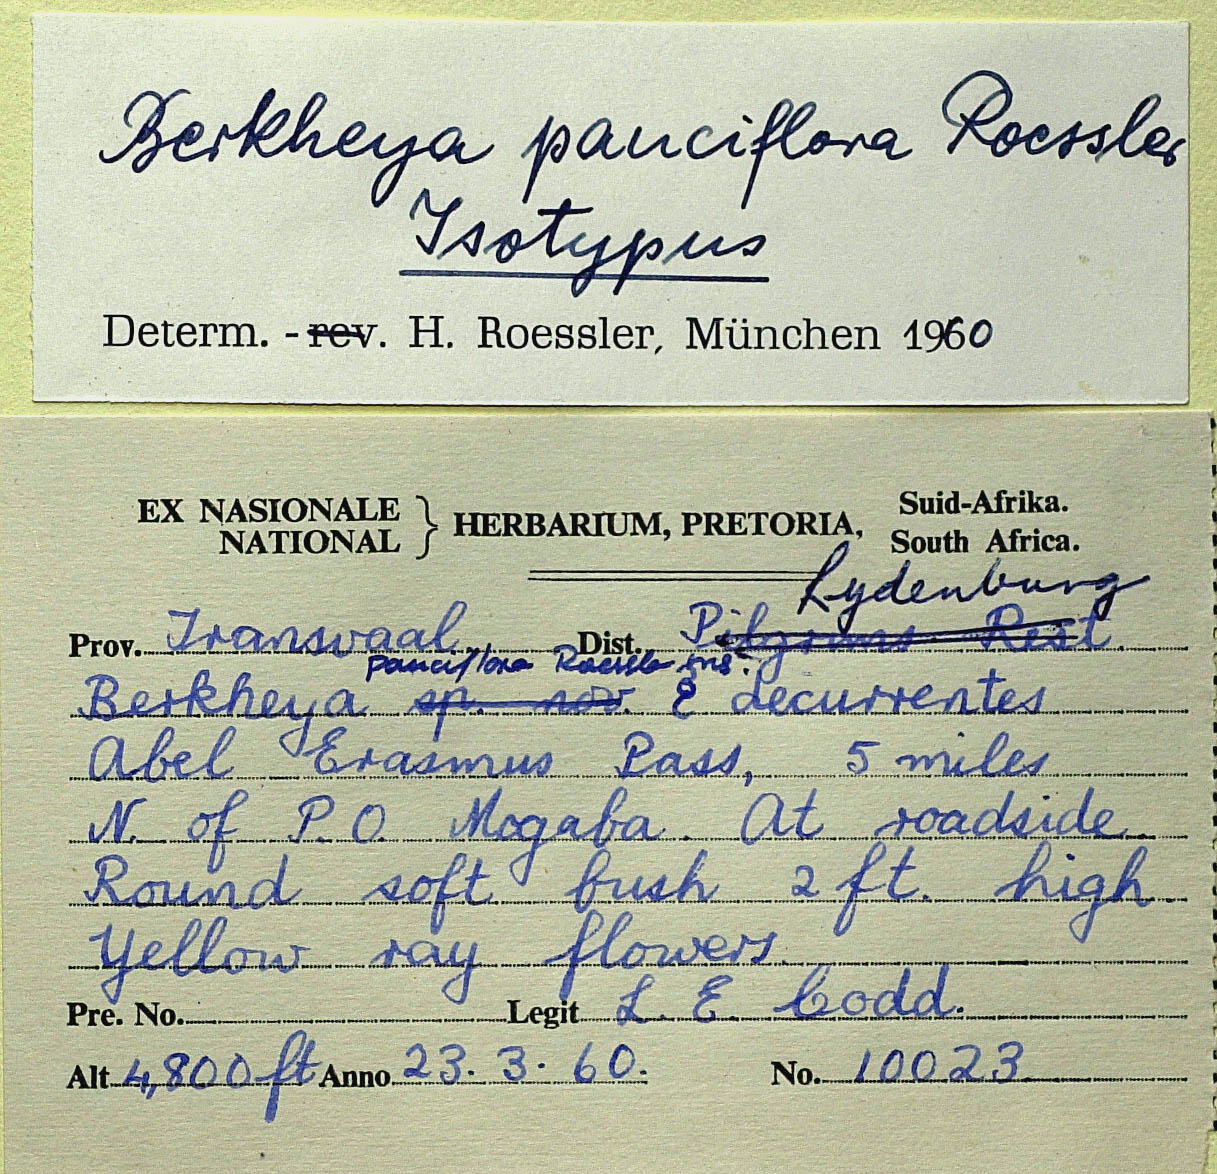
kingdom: Plantae
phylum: Tracheophyta
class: Magnoliopsida
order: Asterales
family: Asteraceae
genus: Berkheya
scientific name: Berkheya pauciflora
